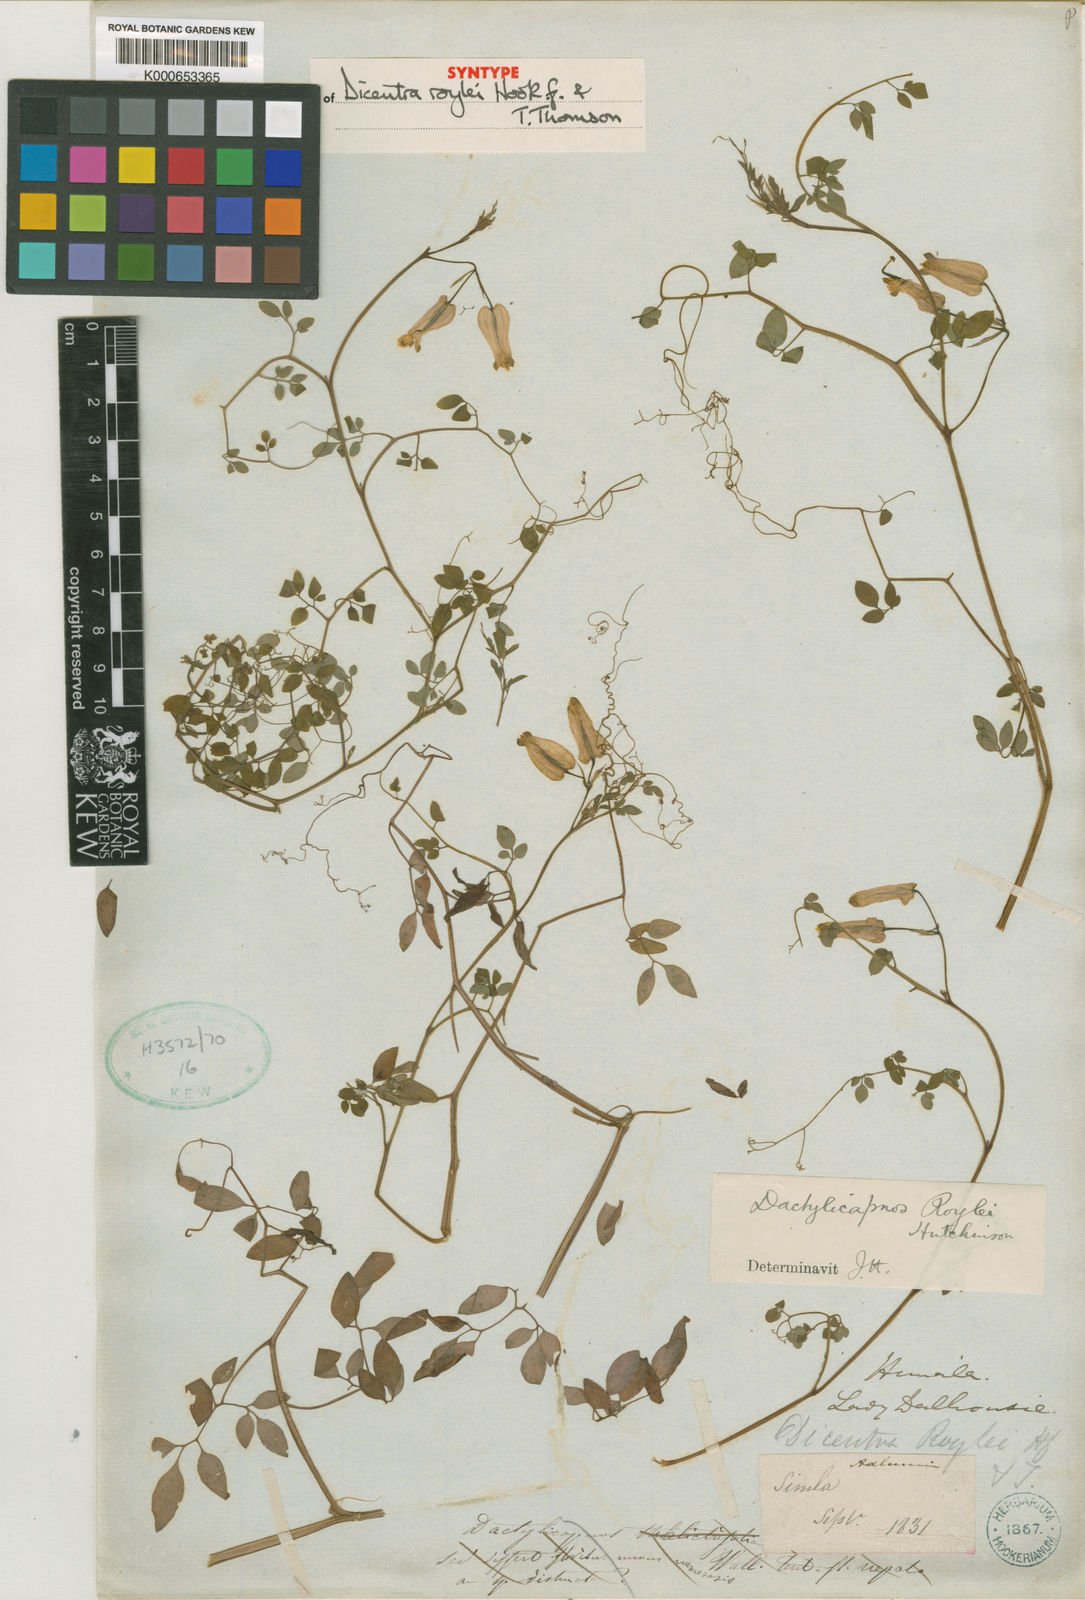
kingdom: Plantae
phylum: Tracheophyta
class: Magnoliopsida
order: Ranunculales
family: Papaveraceae
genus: Dactylicapnos
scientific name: Dactylicapnos roylei
